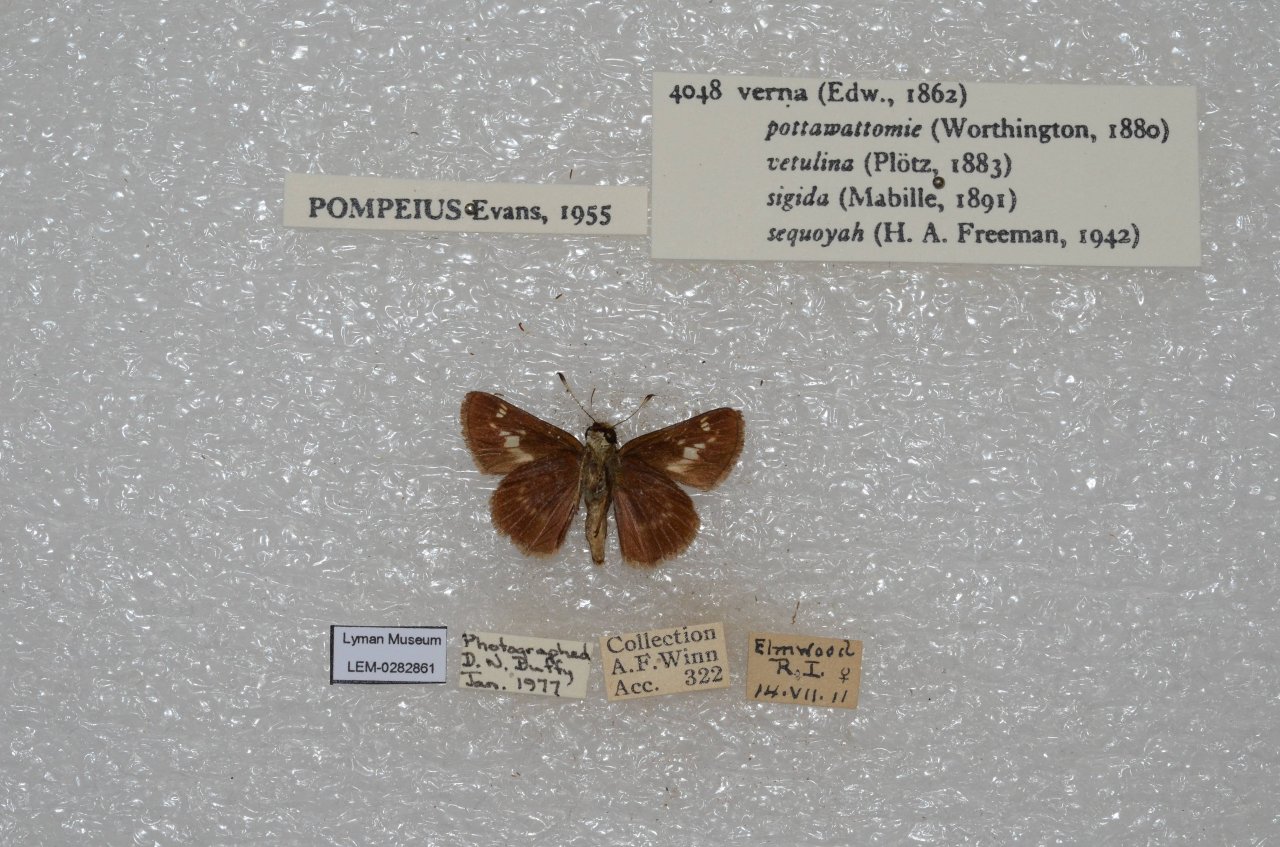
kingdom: Animalia
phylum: Arthropoda
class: Insecta
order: Lepidoptera
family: Hesperiidae
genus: Vernia
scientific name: Vernia verna
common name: Little Glassywing
